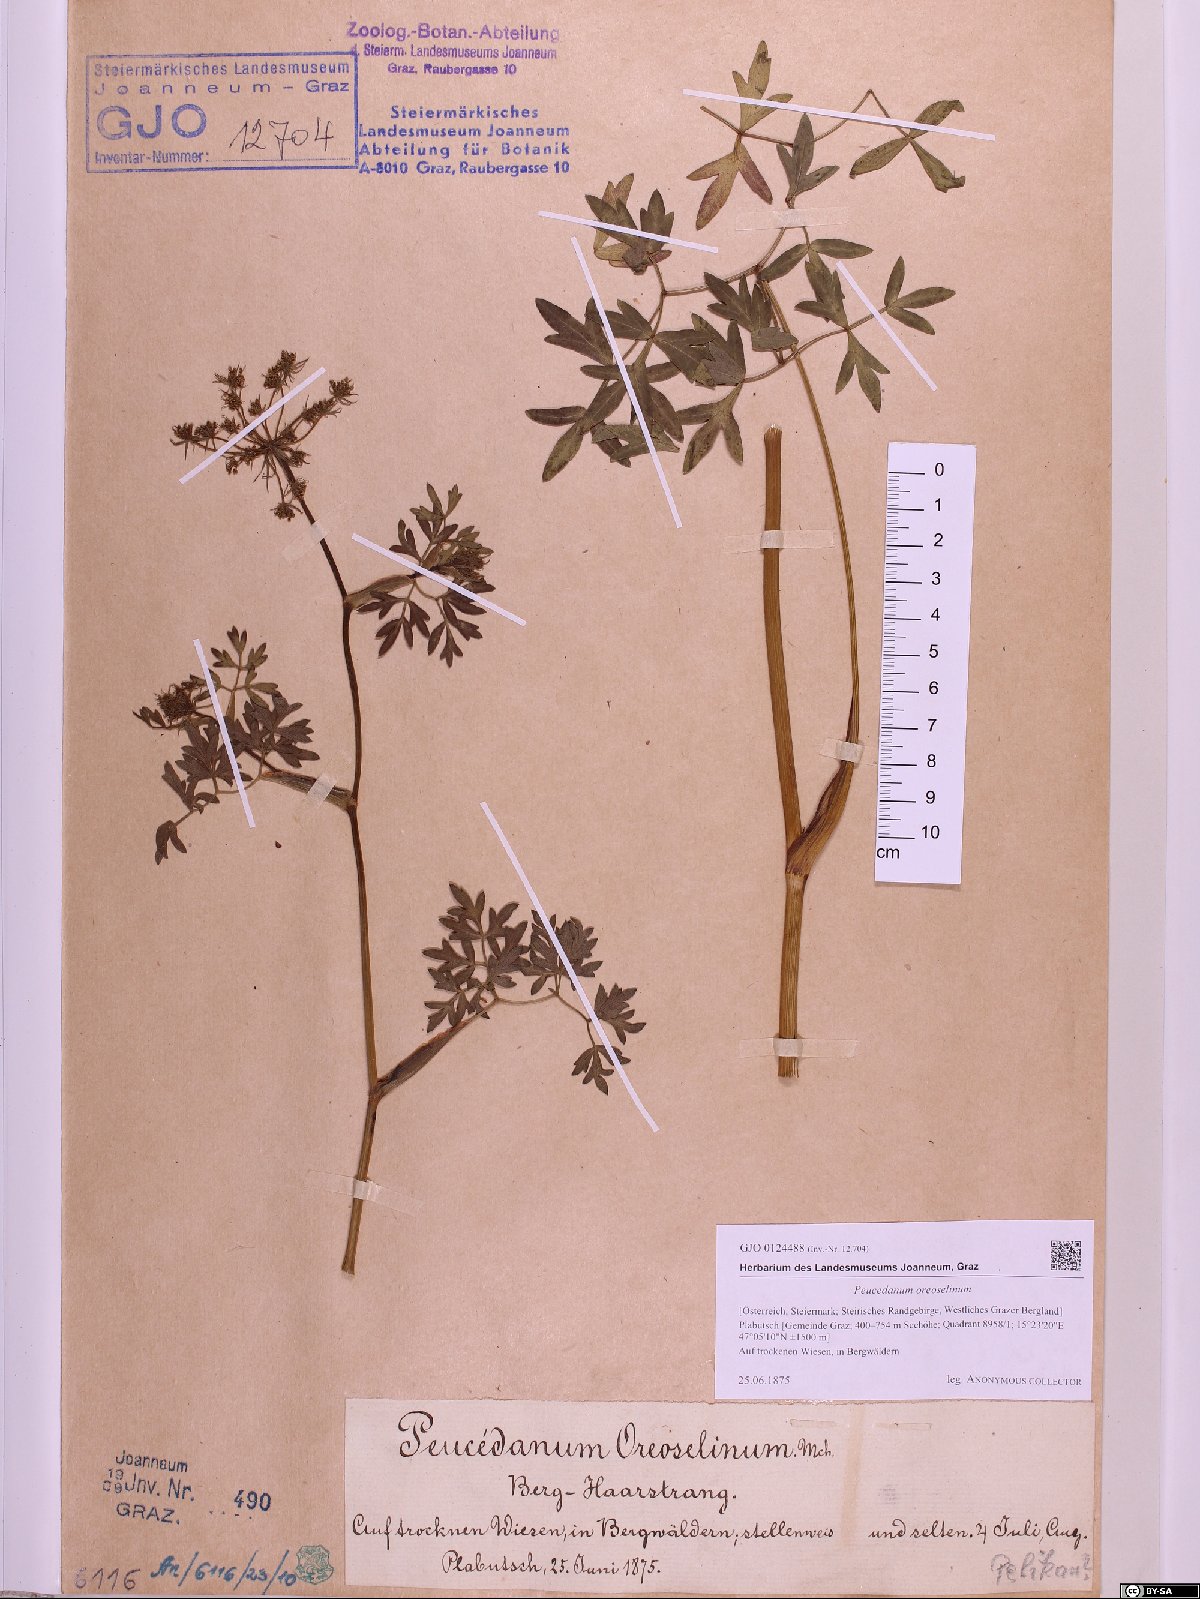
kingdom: Plantae
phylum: Tracheophyta
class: Magnoliopsida
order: Apiales
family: Apiaceae
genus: Oreoselinum
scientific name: Oreoselinum nigrum
